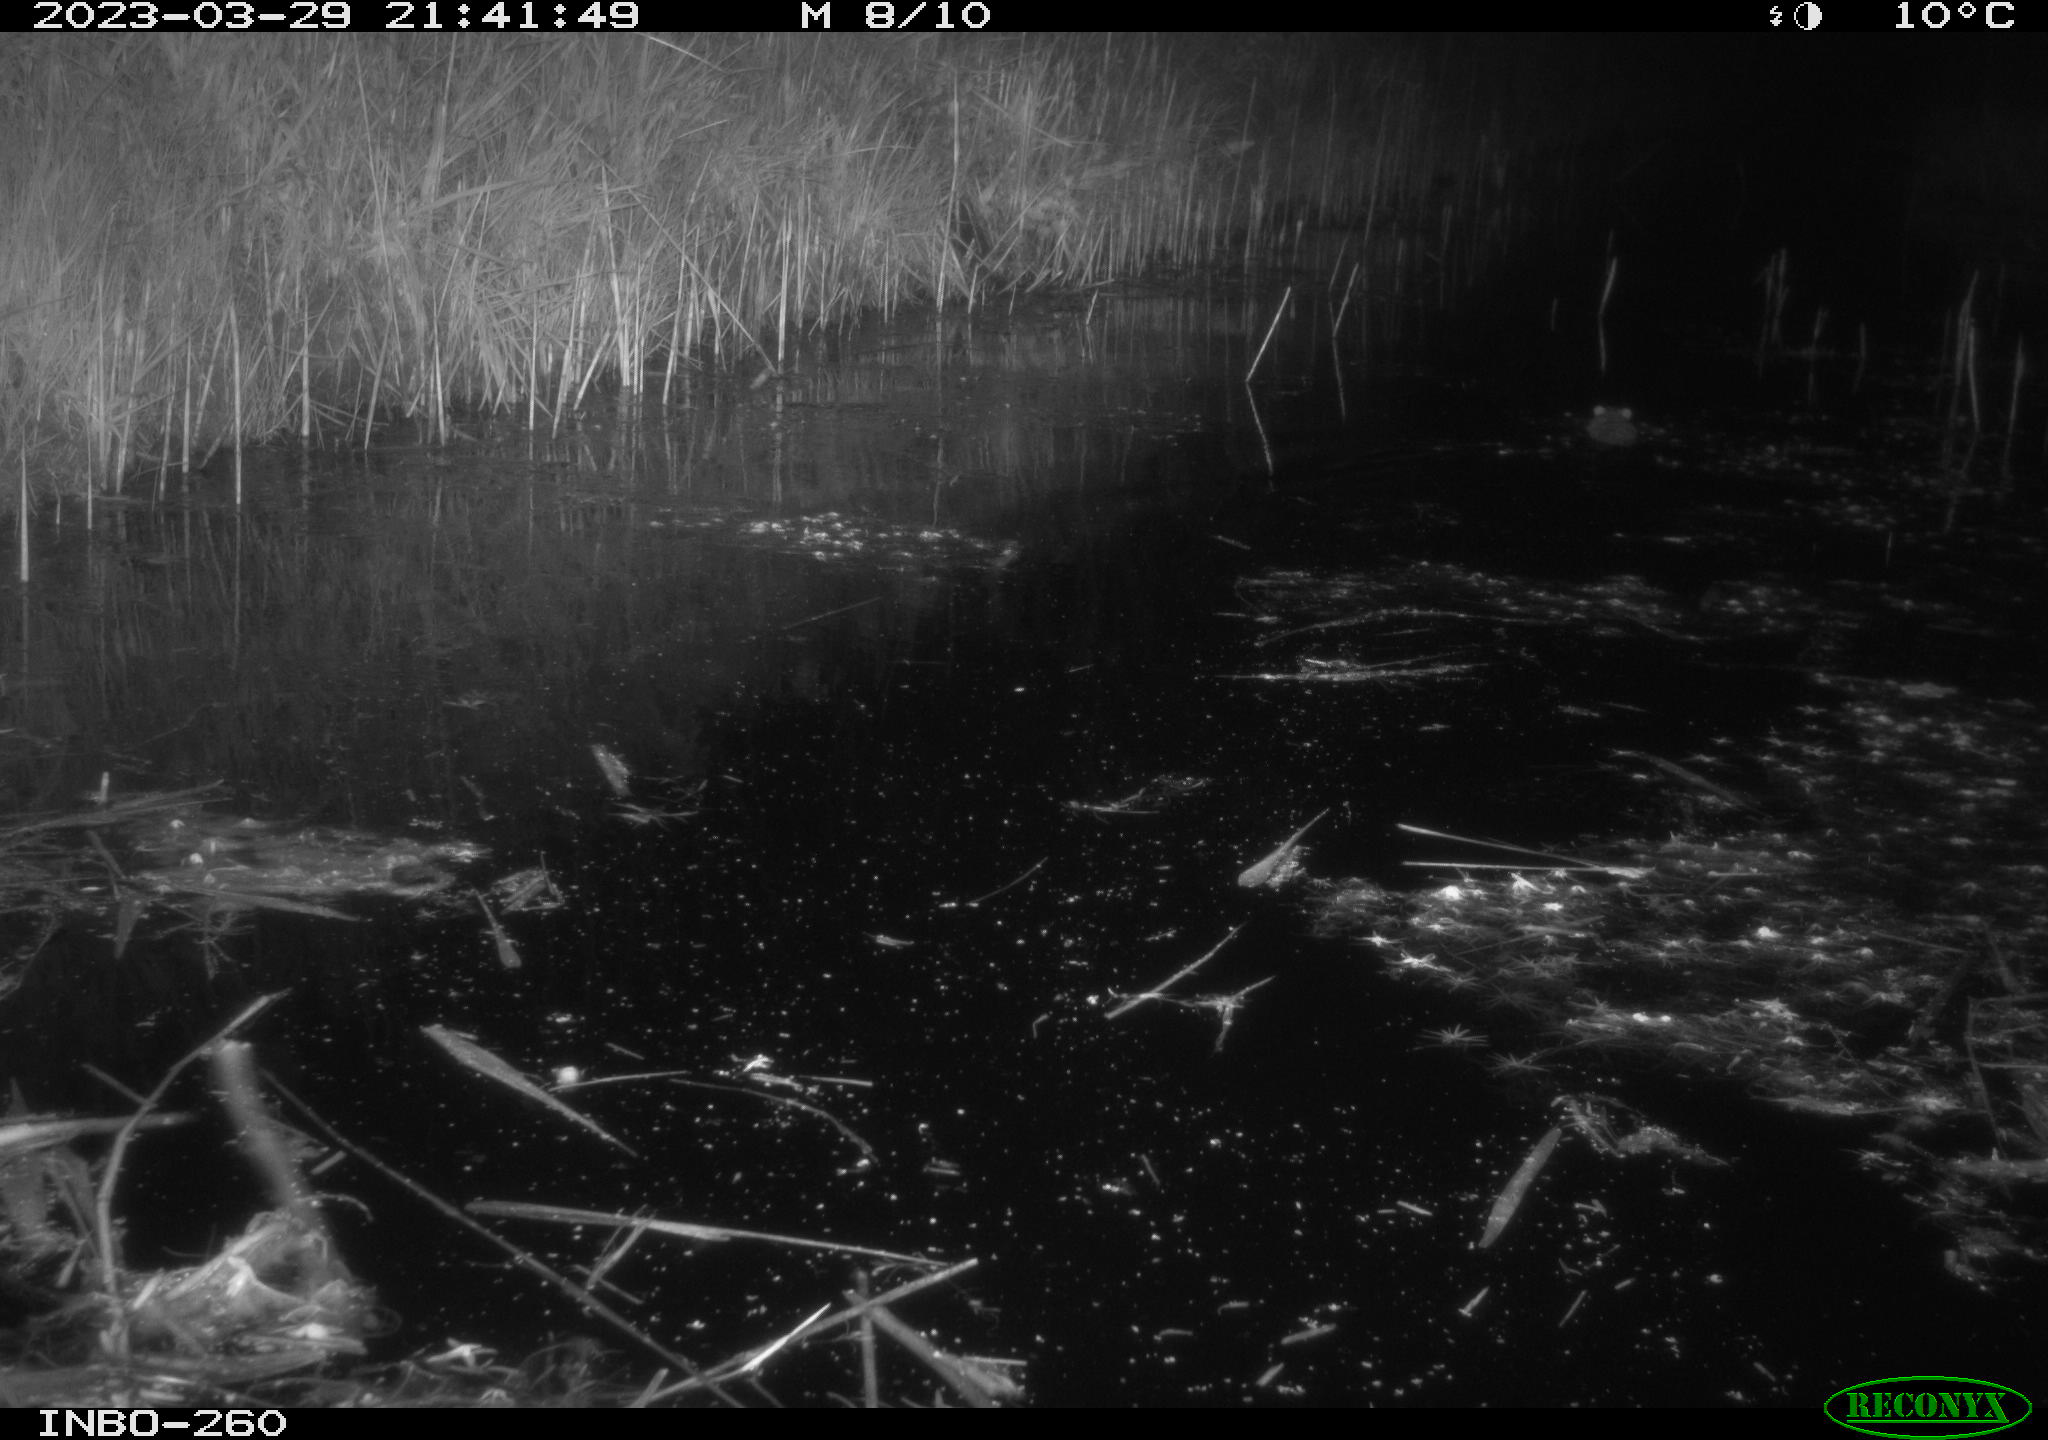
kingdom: Animalia
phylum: Chordata
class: Mammalia
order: Rodentia
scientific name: Rodentia
